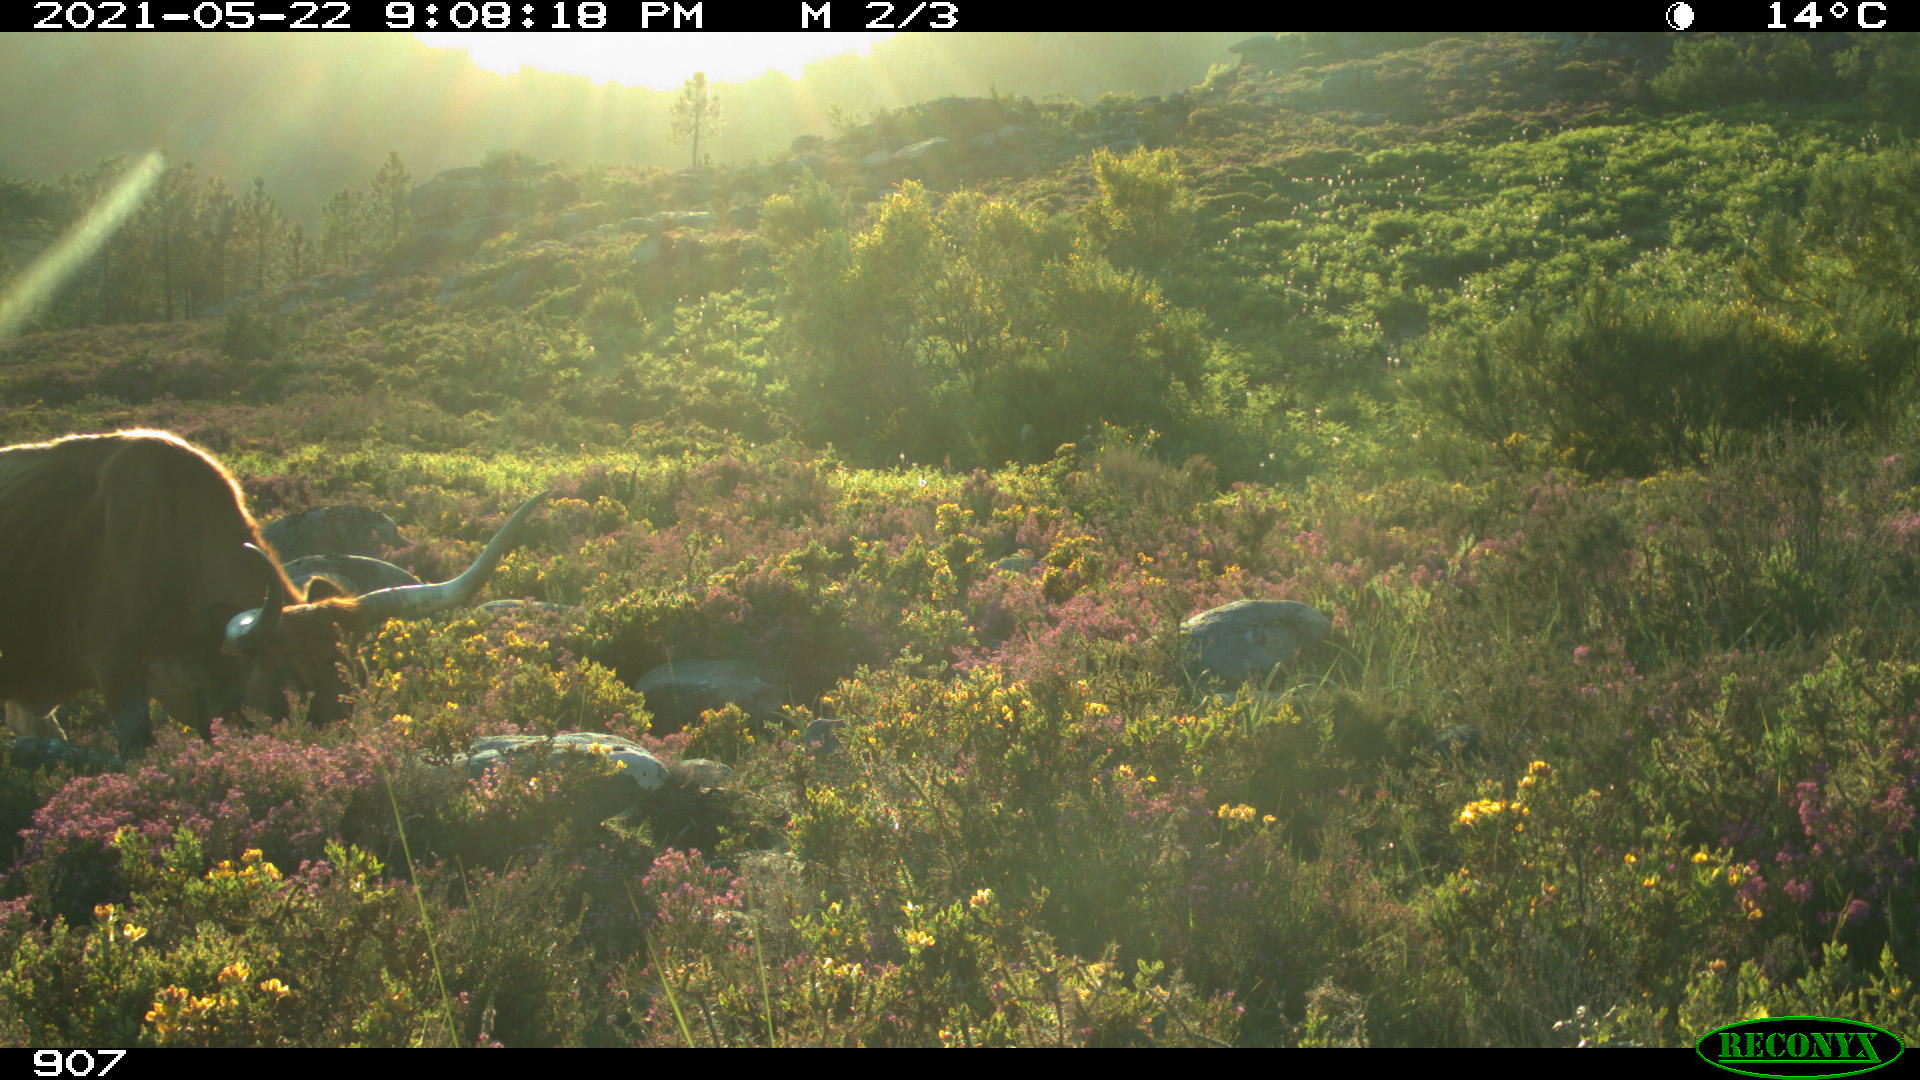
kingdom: Animalia
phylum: Chordata
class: Mammalia
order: Artiodactyla
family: Bovidae
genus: Bos
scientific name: Bos taurus
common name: Domesticated cattle
